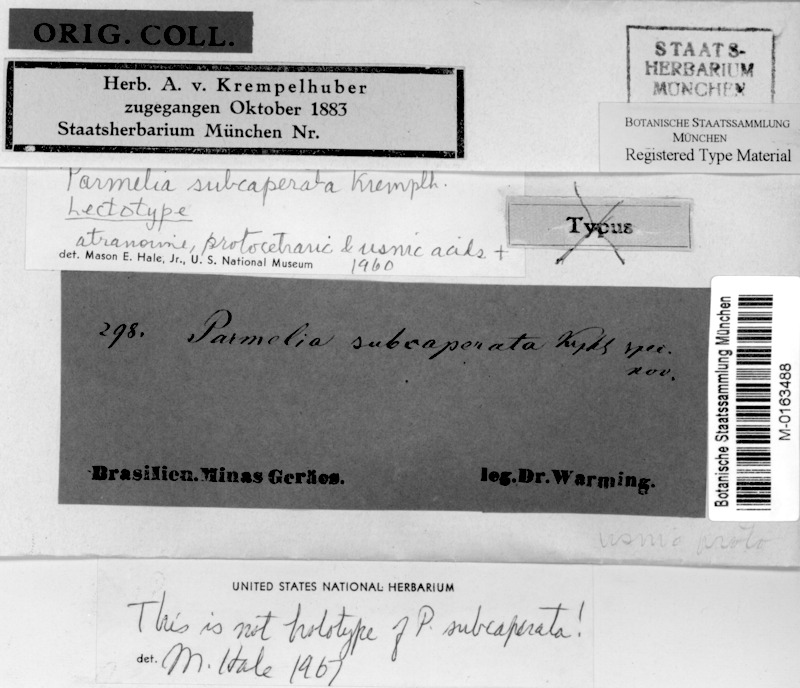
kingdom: Fungi
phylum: Ascomycota
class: Lecanoromycetes
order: Lecanorales
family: Parmeliaceae
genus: Parmotrema
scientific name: Parmotrema subcaperatum
